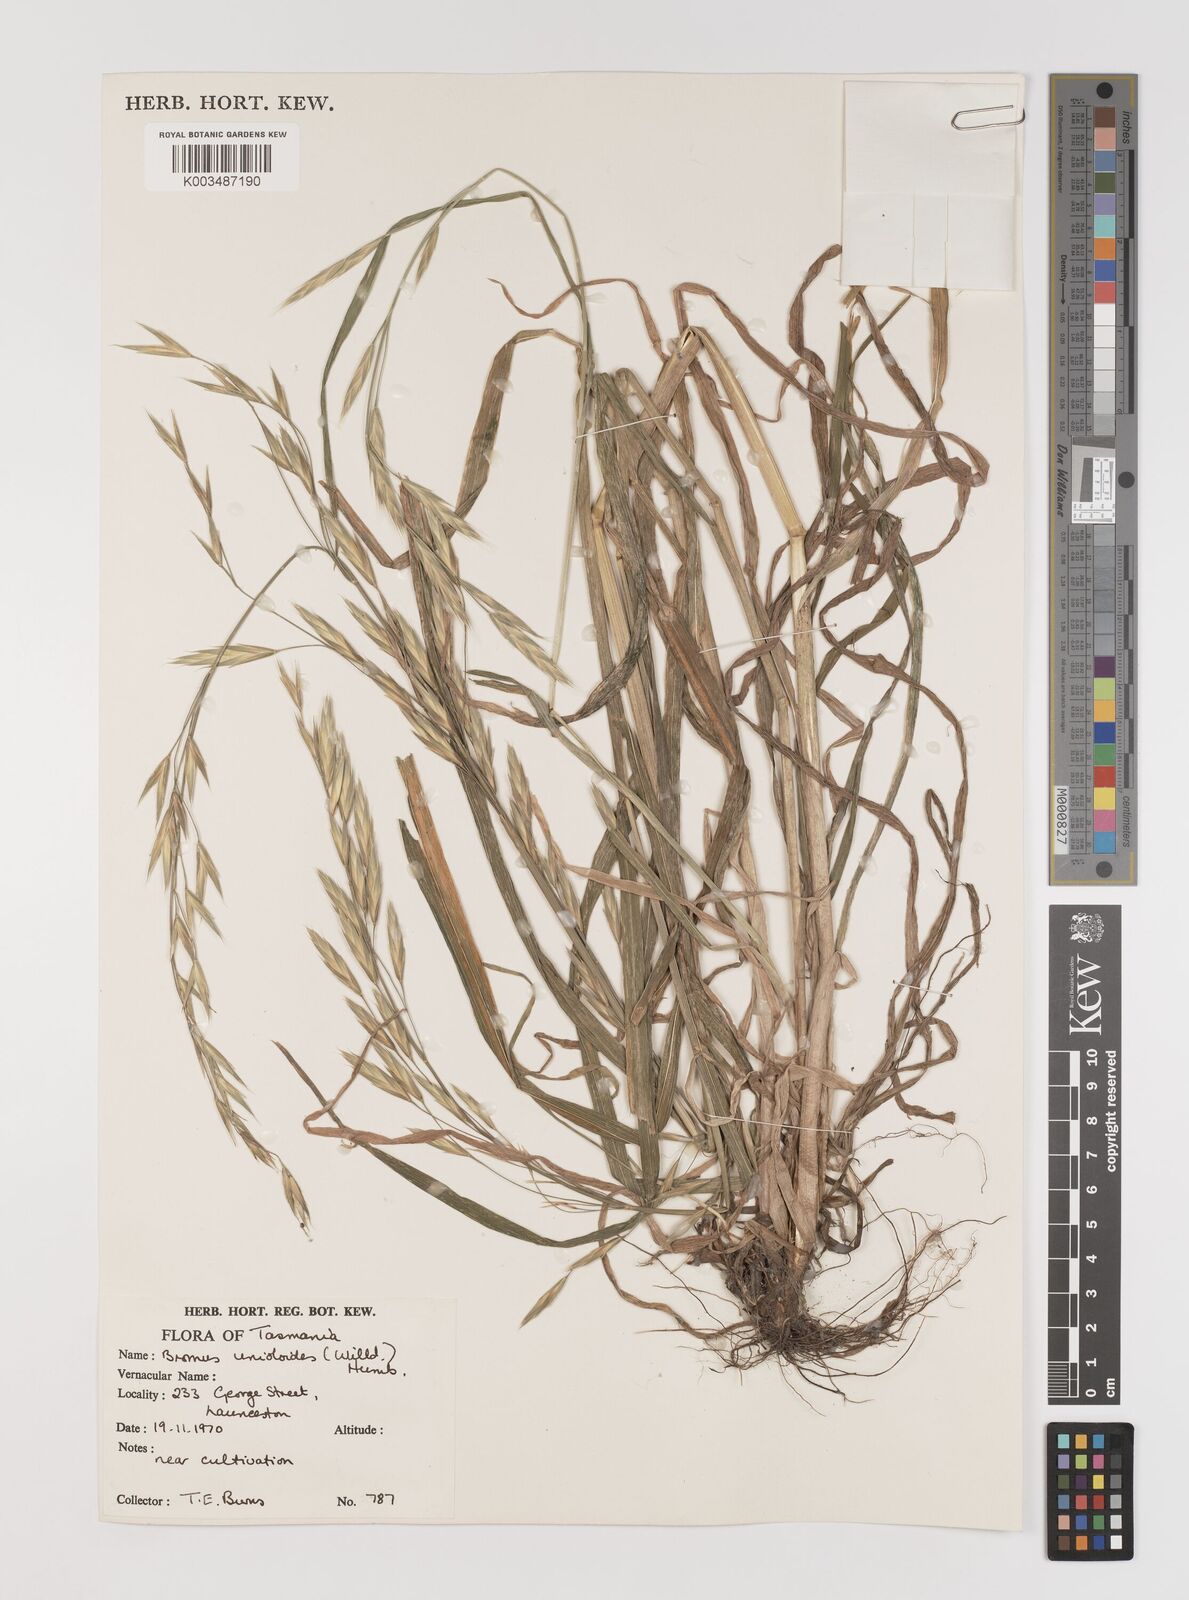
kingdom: Plantae
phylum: Tracheophyta
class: Liliopsida
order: Poales
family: Poaceae
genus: Bromus
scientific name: Bromus catharticus
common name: Rescuegrass
